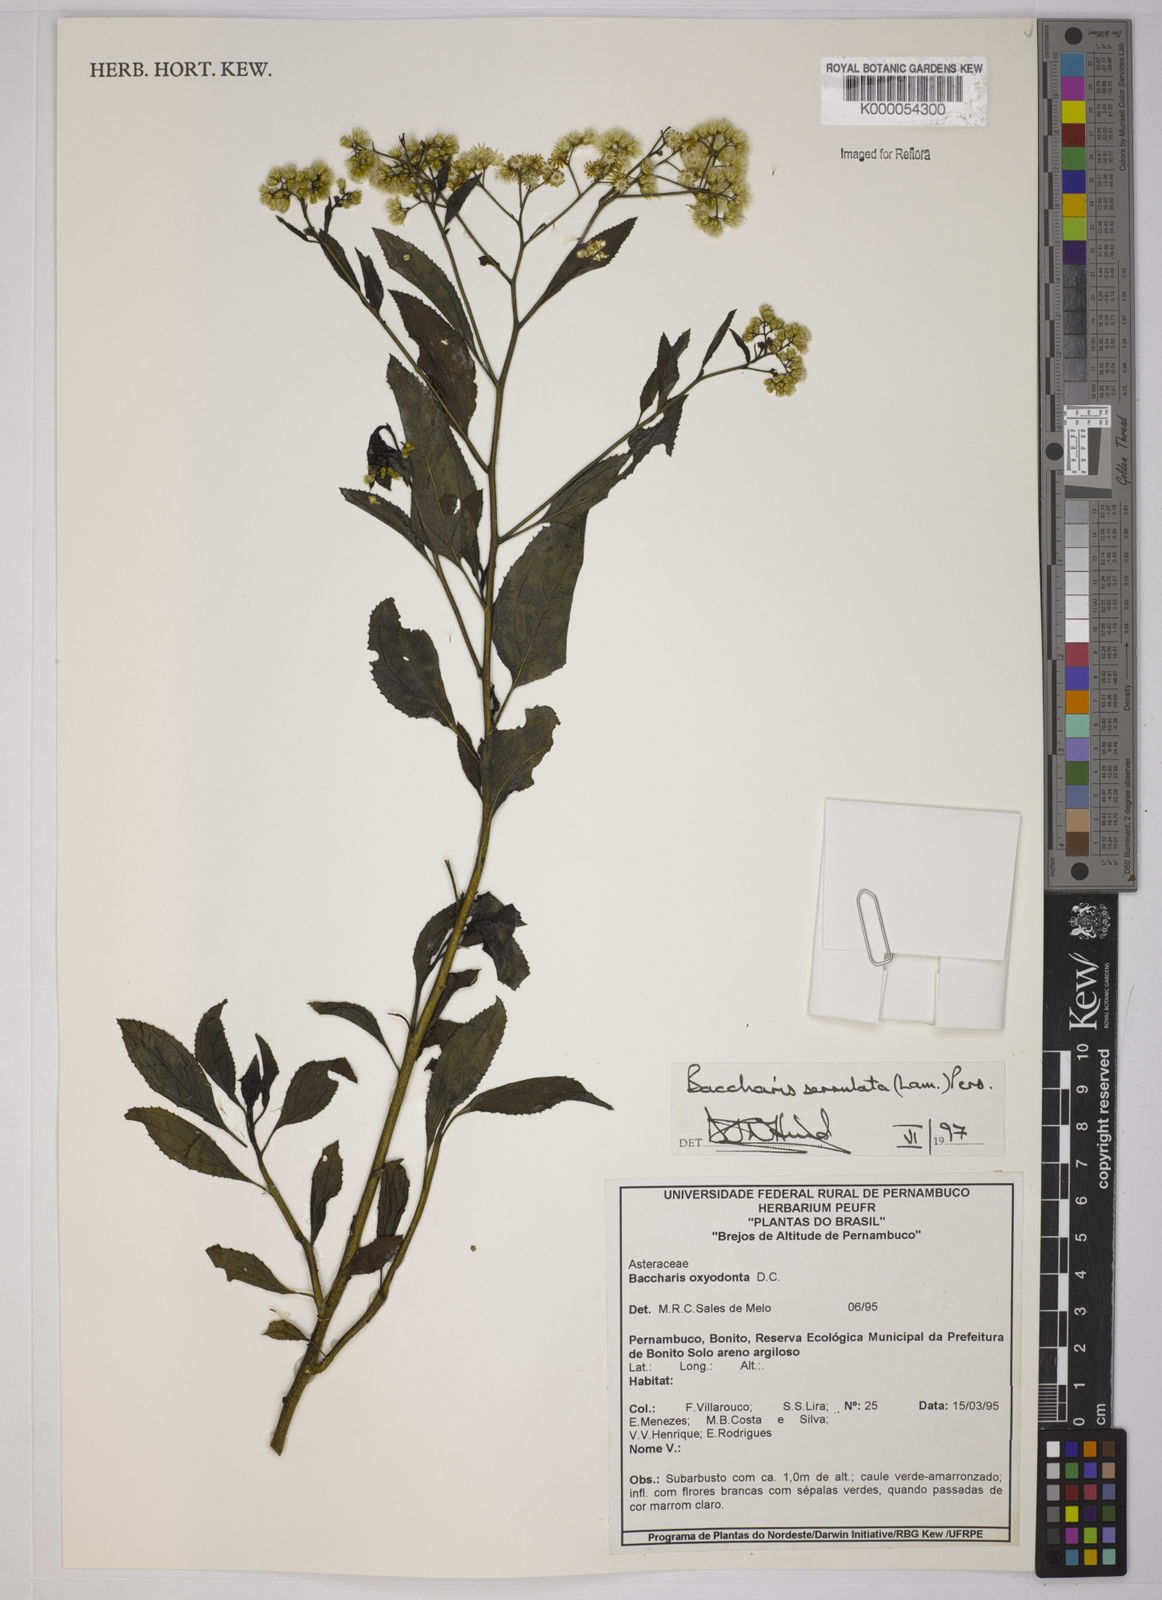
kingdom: Plantae
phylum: Tracheophyta
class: Magnoliopsida
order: Asterales
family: Asteraceae
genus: Baccharis
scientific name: Baccharis serrulata
